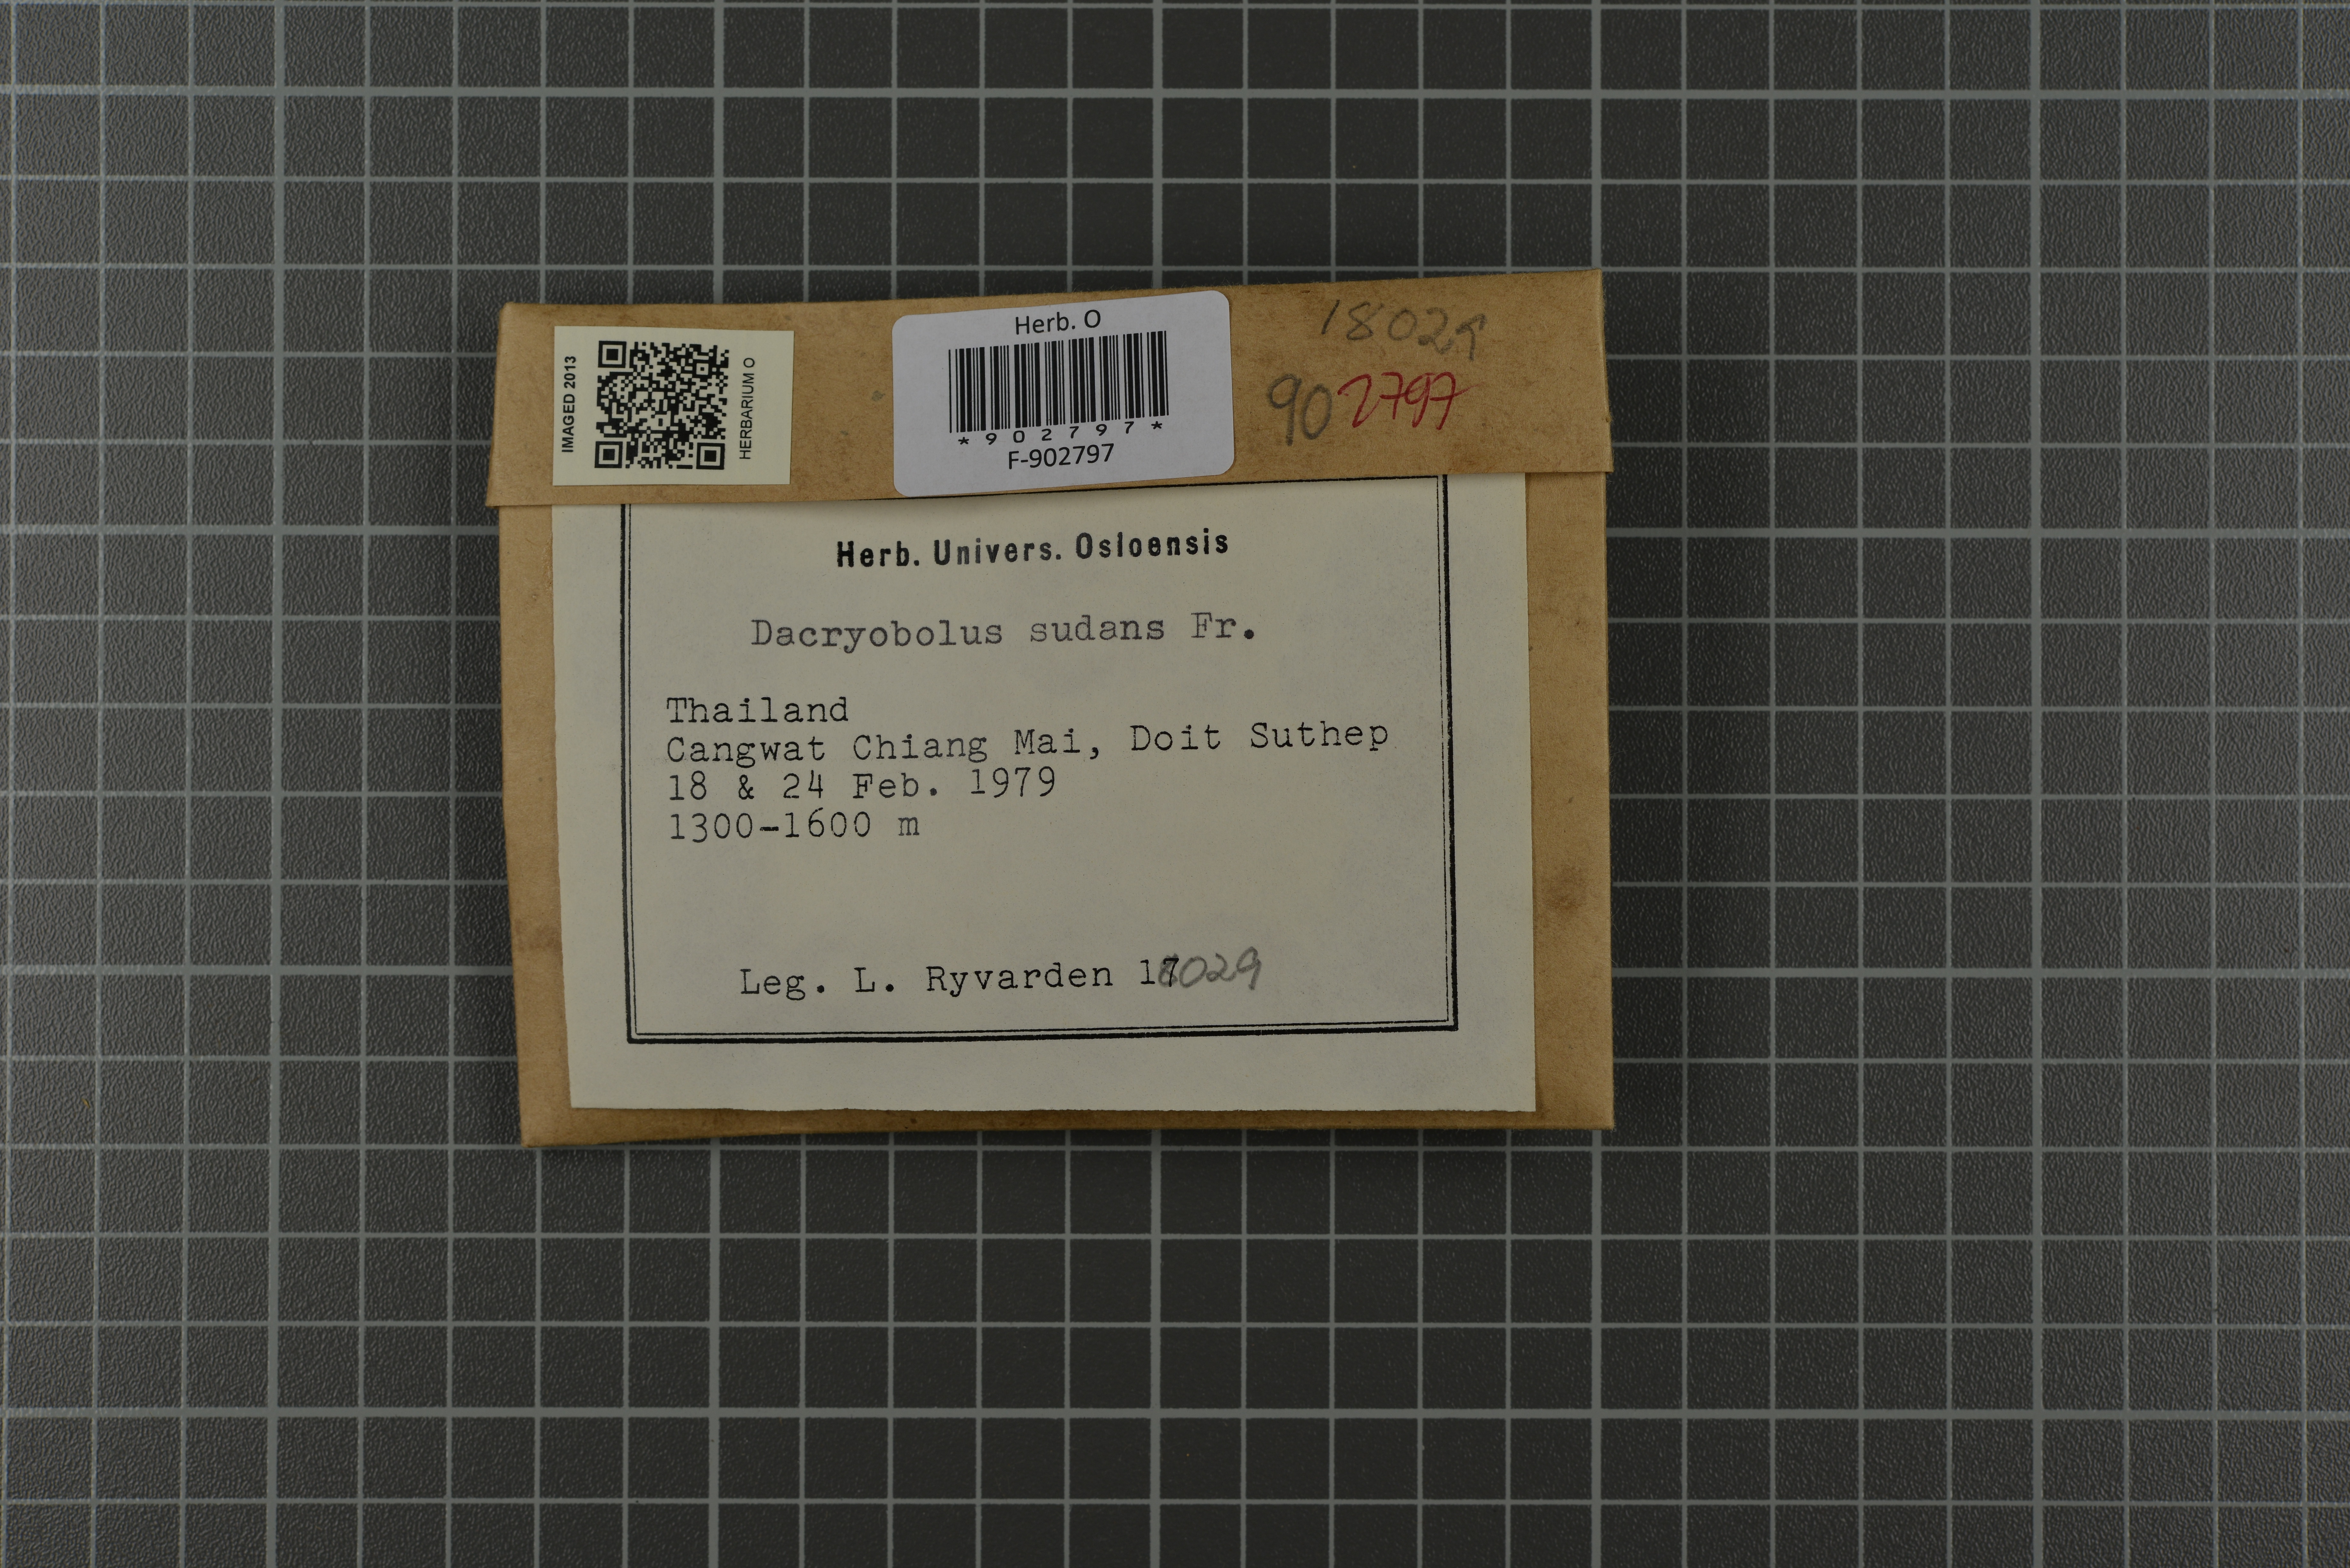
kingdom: Fungi
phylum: Basidiomycota
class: Agaricomycetes
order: Polyporales
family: Dacryobolaceae
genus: Dacryobolus
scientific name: Dacryobolus sudans
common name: Weeping toothcrust
